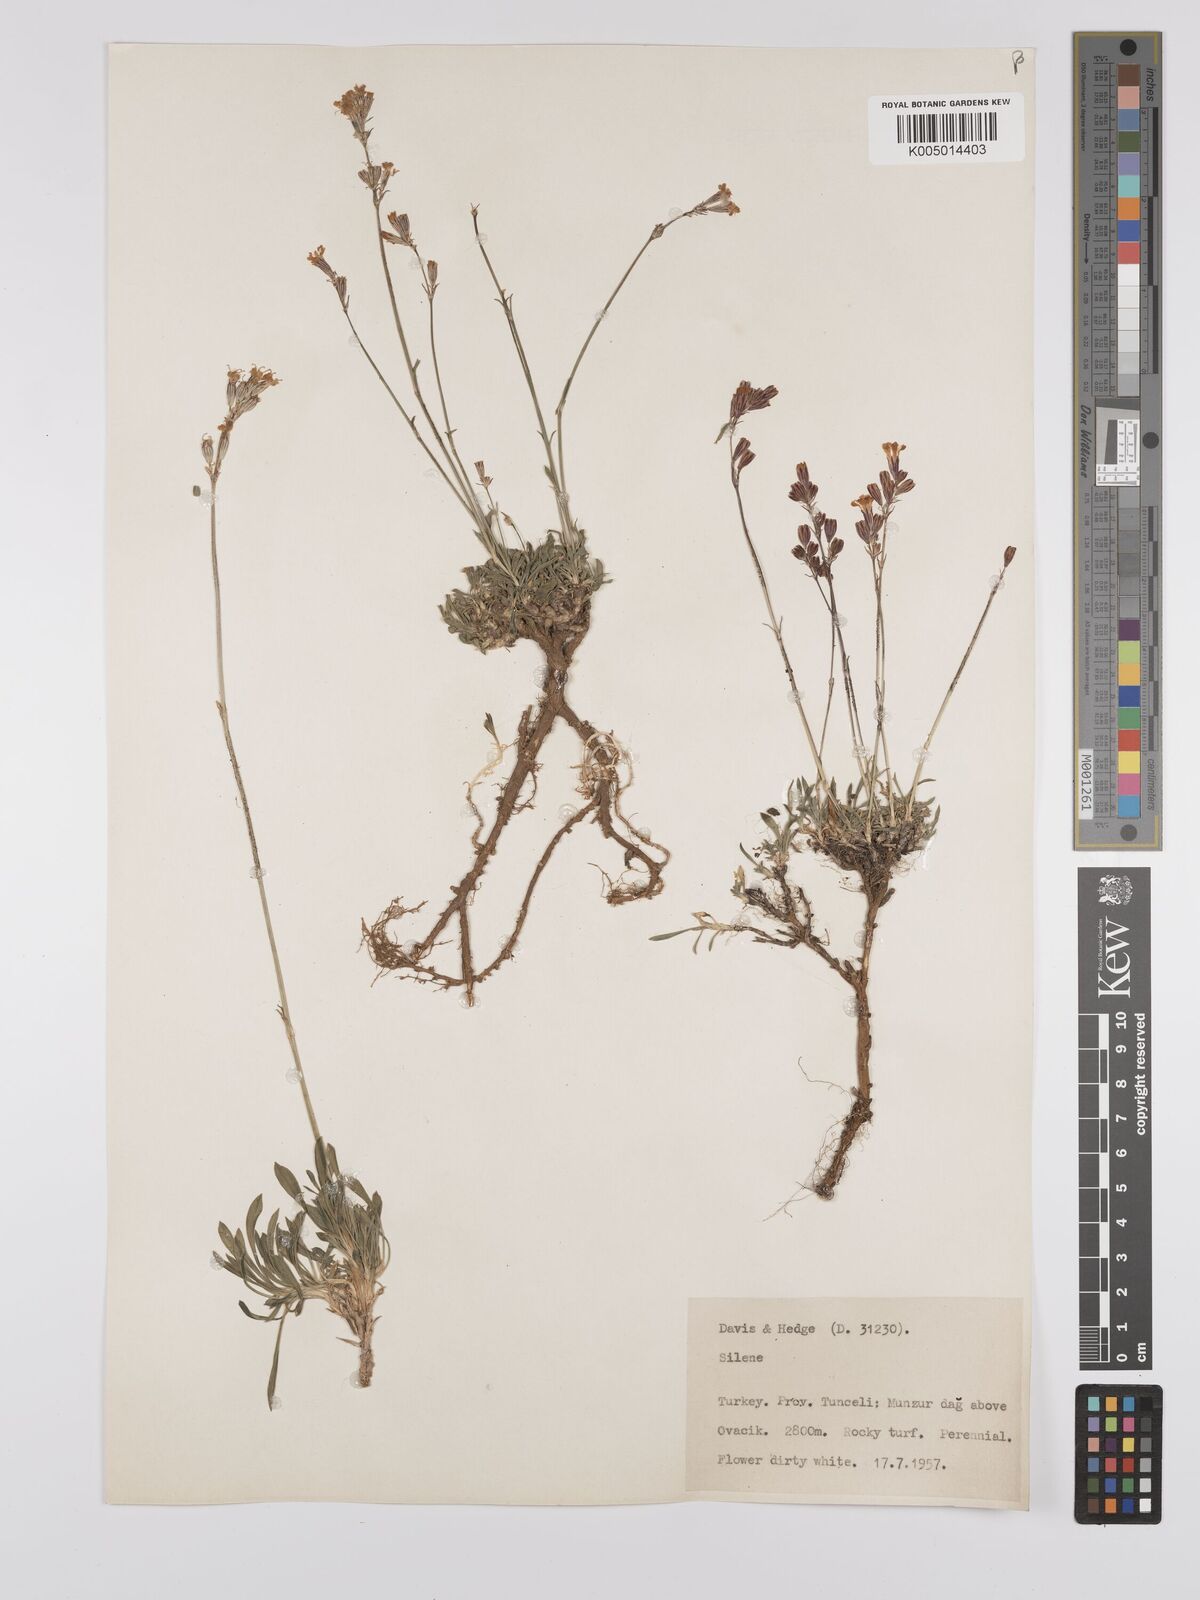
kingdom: Plantae
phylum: Tracheophyta
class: Magnoliopsida
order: Caryophyllales
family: Caryophyllaceae
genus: Silene
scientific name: Silene
